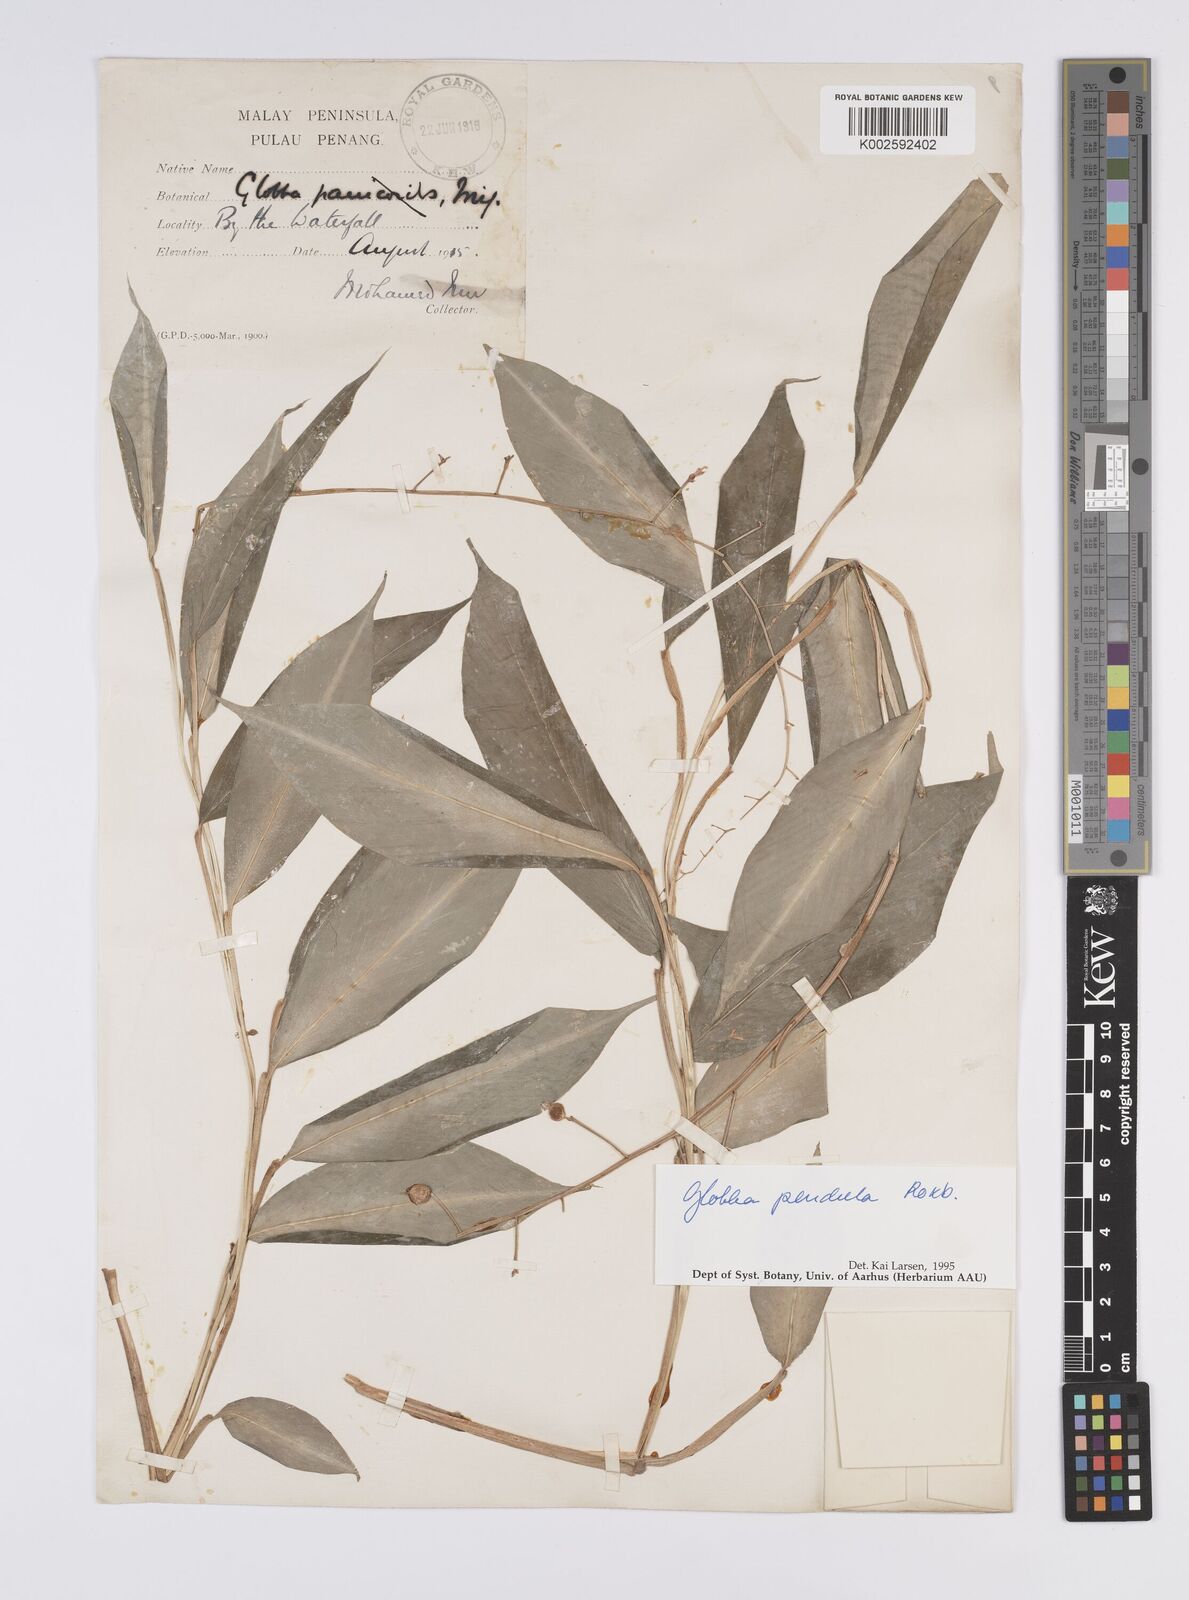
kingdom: Plantae
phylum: Tracheophyta
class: Liliopsida
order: Zingiberales
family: Zingiberaceae
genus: Globba
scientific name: Globba pendula
